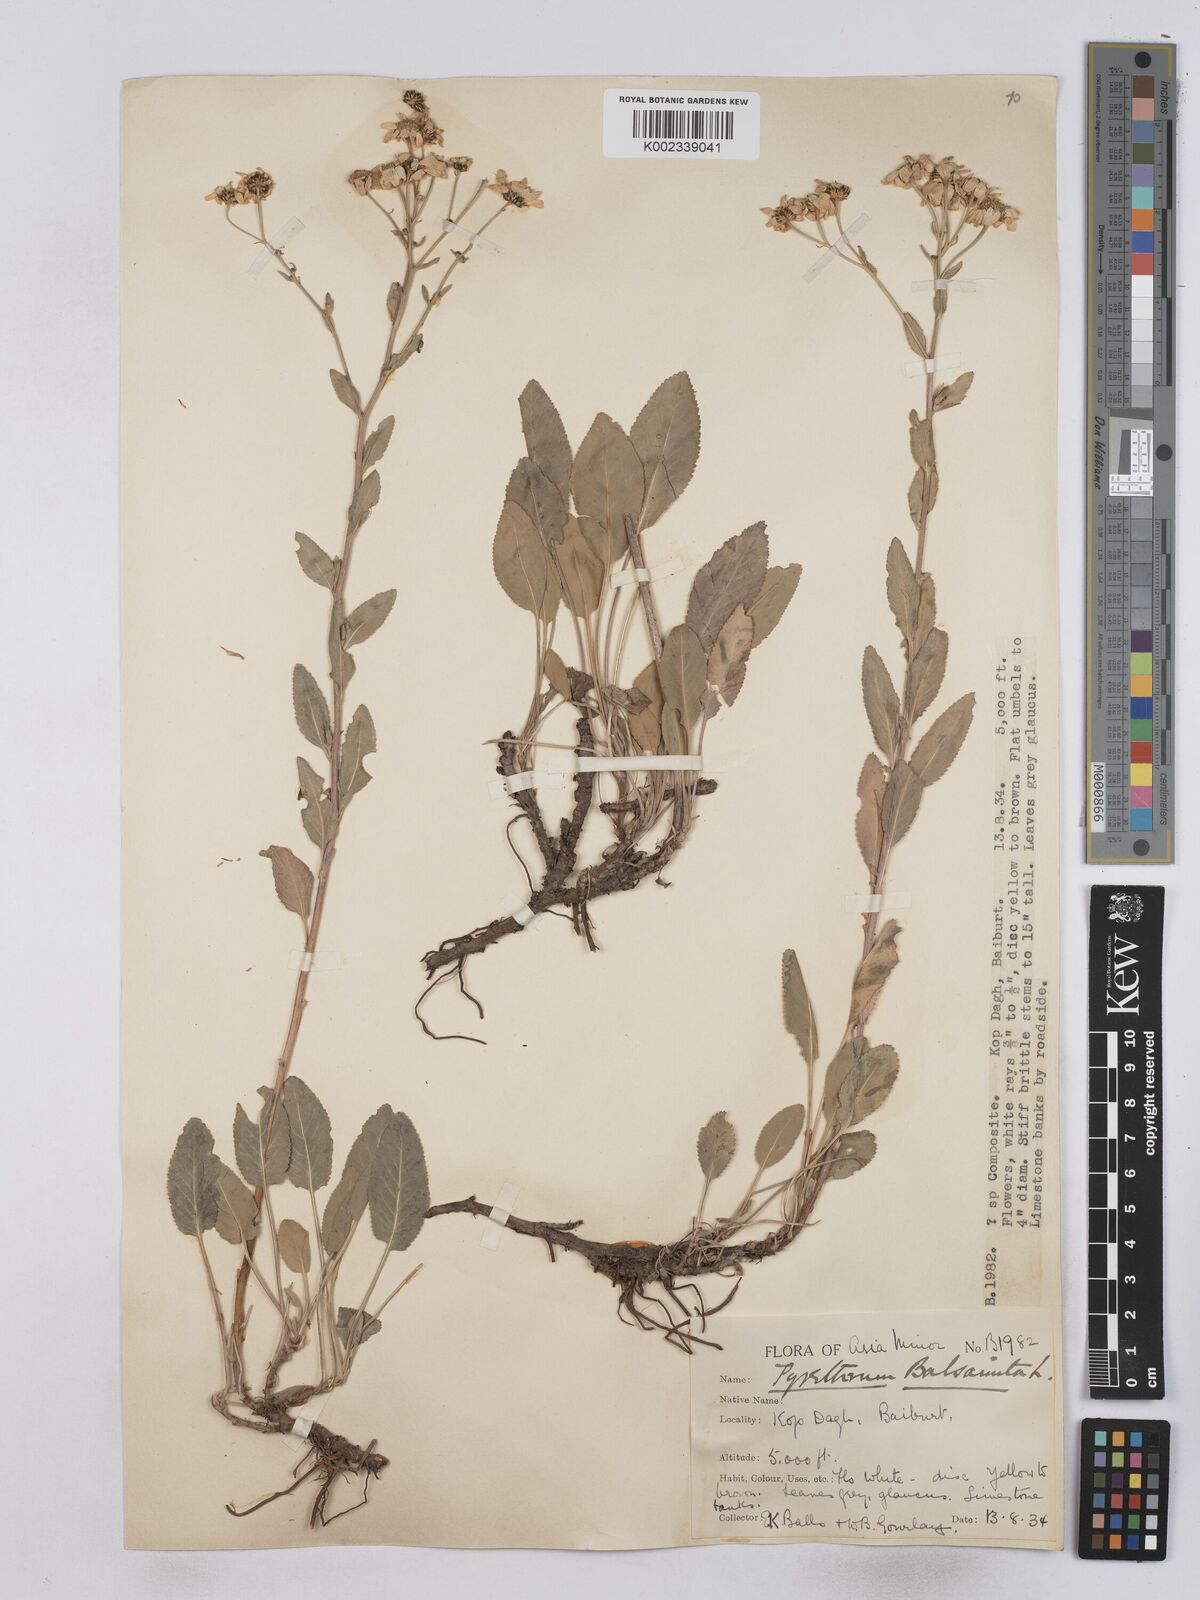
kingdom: Plantae
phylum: Tracheophyta
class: Magnoliopsida
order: Asterales
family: Asteraceae
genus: Tanacetum
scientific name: Tanacetum balsamita
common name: Costmary
